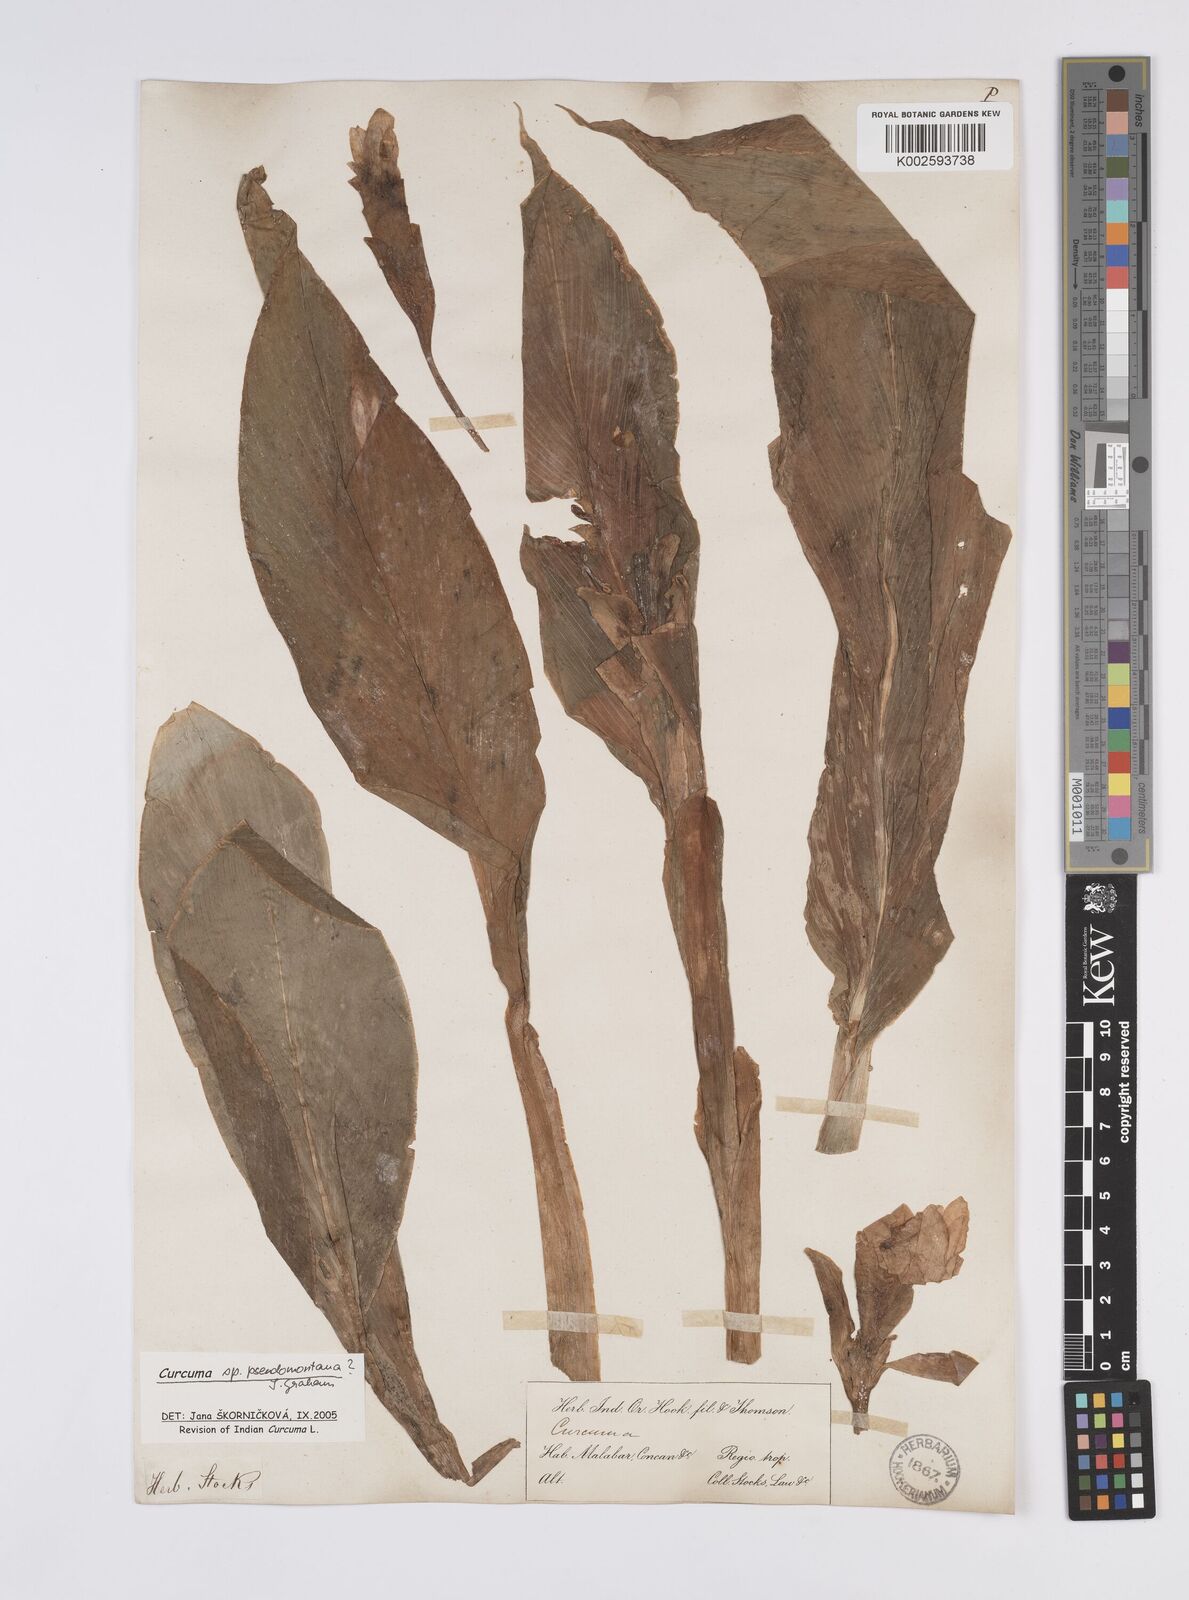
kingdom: Plantae
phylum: Tracheophyta
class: Liliopsida
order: Zingiberales
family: Zingiberaceae
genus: Curcuma
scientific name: Curcuma pseudomontana
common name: Hill turmeric
